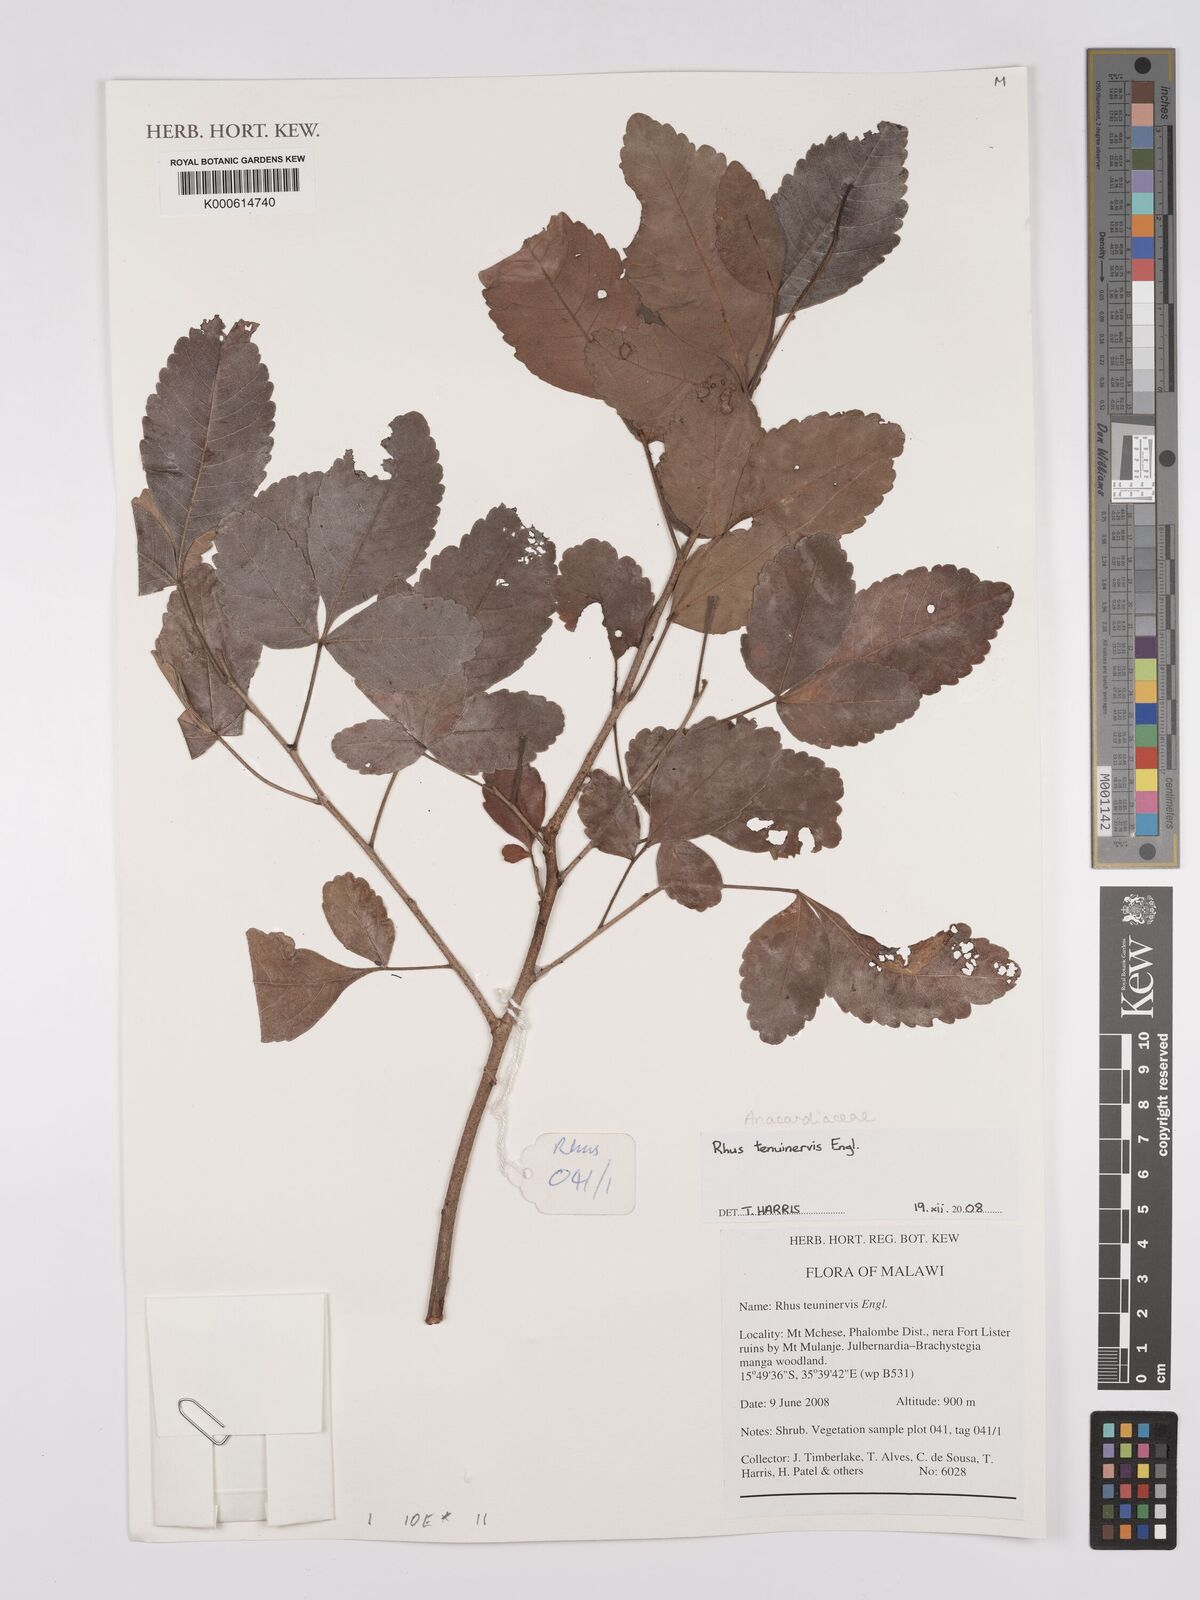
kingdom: Plantae
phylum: Tracheophyta
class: Magnoliopsida
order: Sapindales
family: Anacardiaceae
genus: Searsia
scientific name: Searsia tenuinervis
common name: Hyaena taaibos
